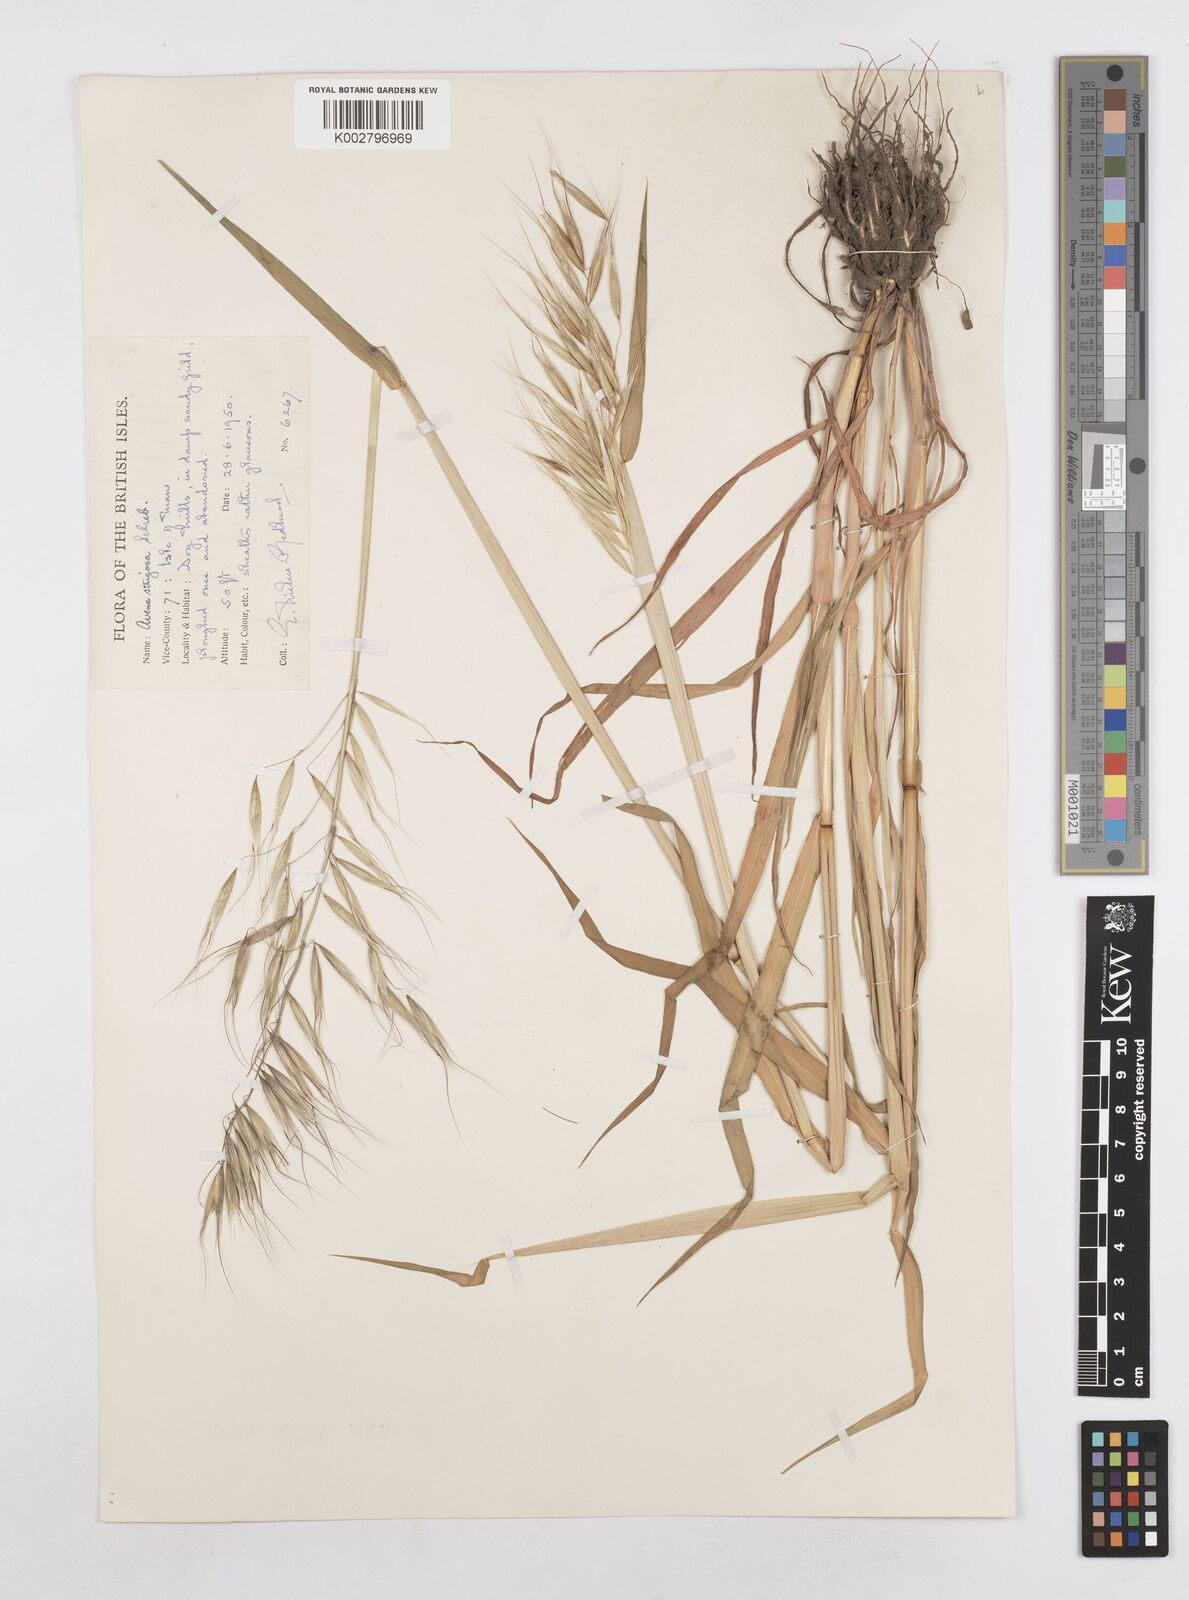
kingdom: Plantae
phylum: Tracheophyta
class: Liliopsida
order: Poales
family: Poaceae
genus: Avena
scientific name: Avena strigosa
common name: Bristle oat
